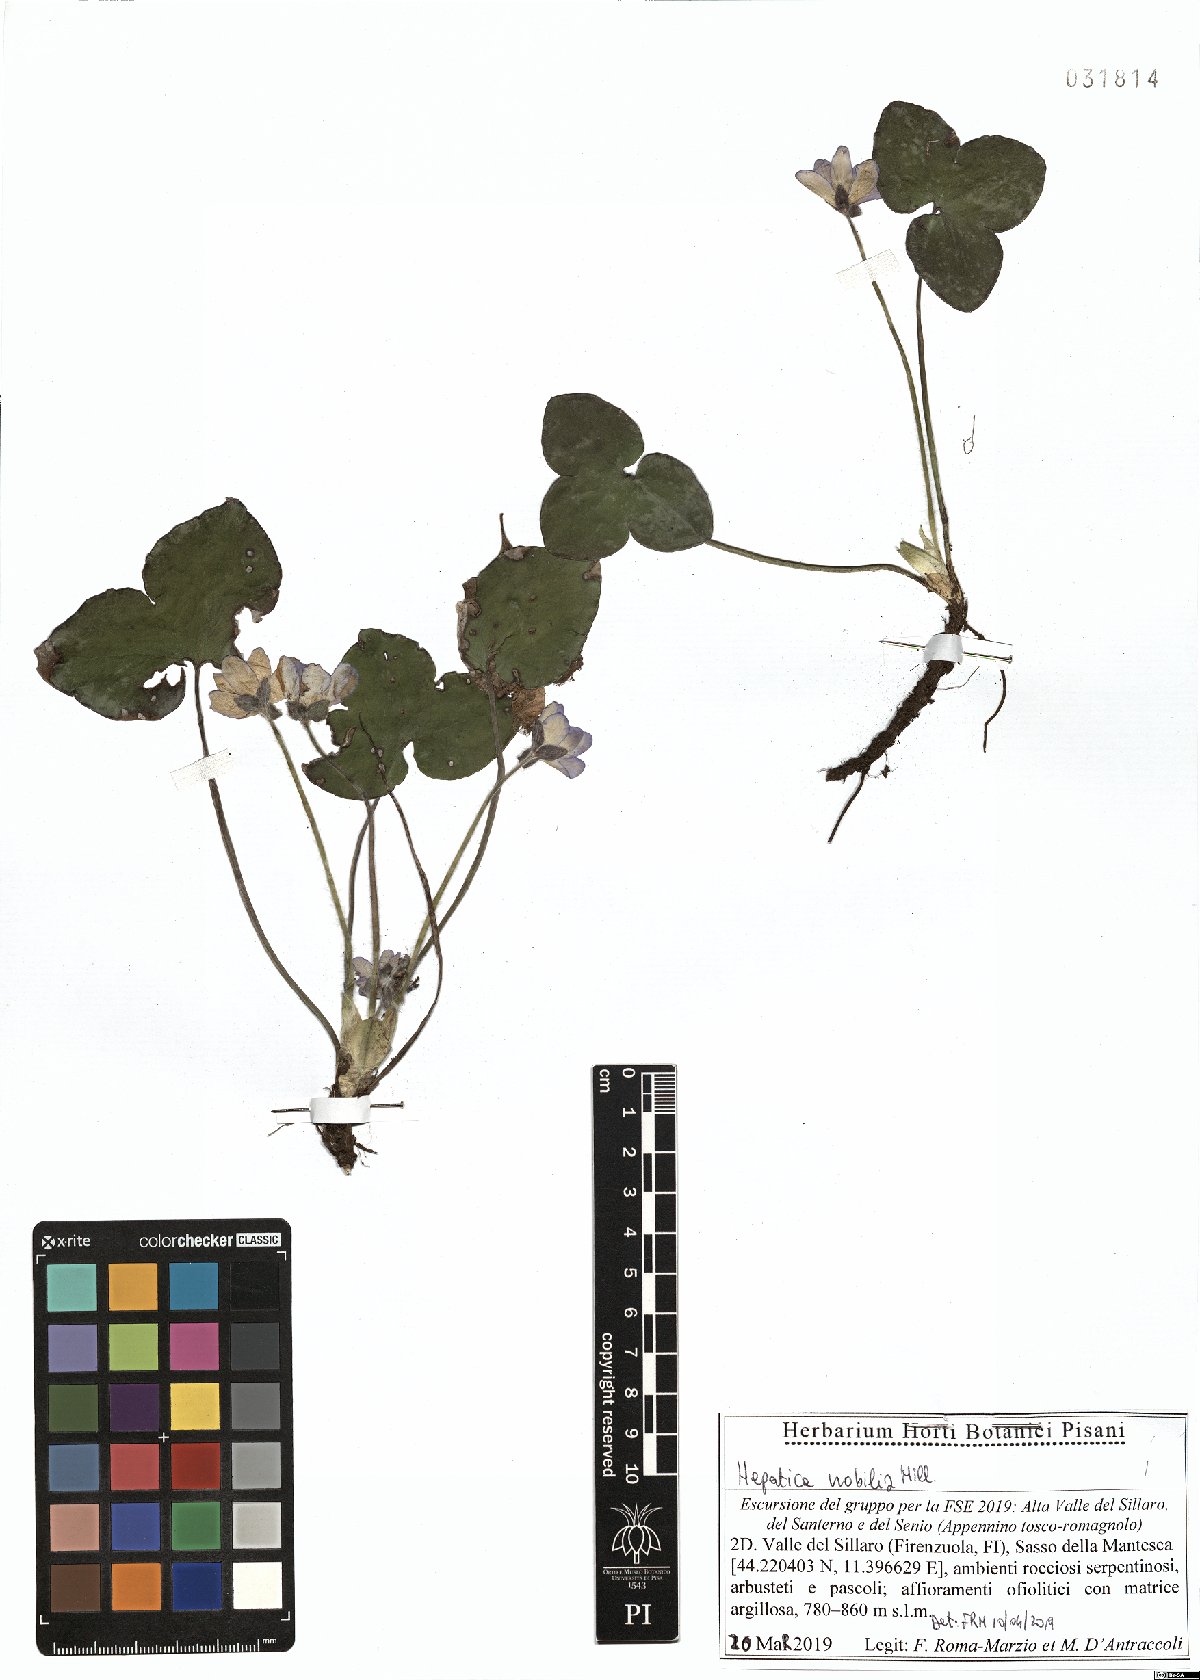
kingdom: Plantae
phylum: Tracheophyta
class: Magnoliopsida
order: Ranunculales
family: Ranunculaceae
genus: Hepatica
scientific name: Hepatica nobilis
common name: Liverleaf
